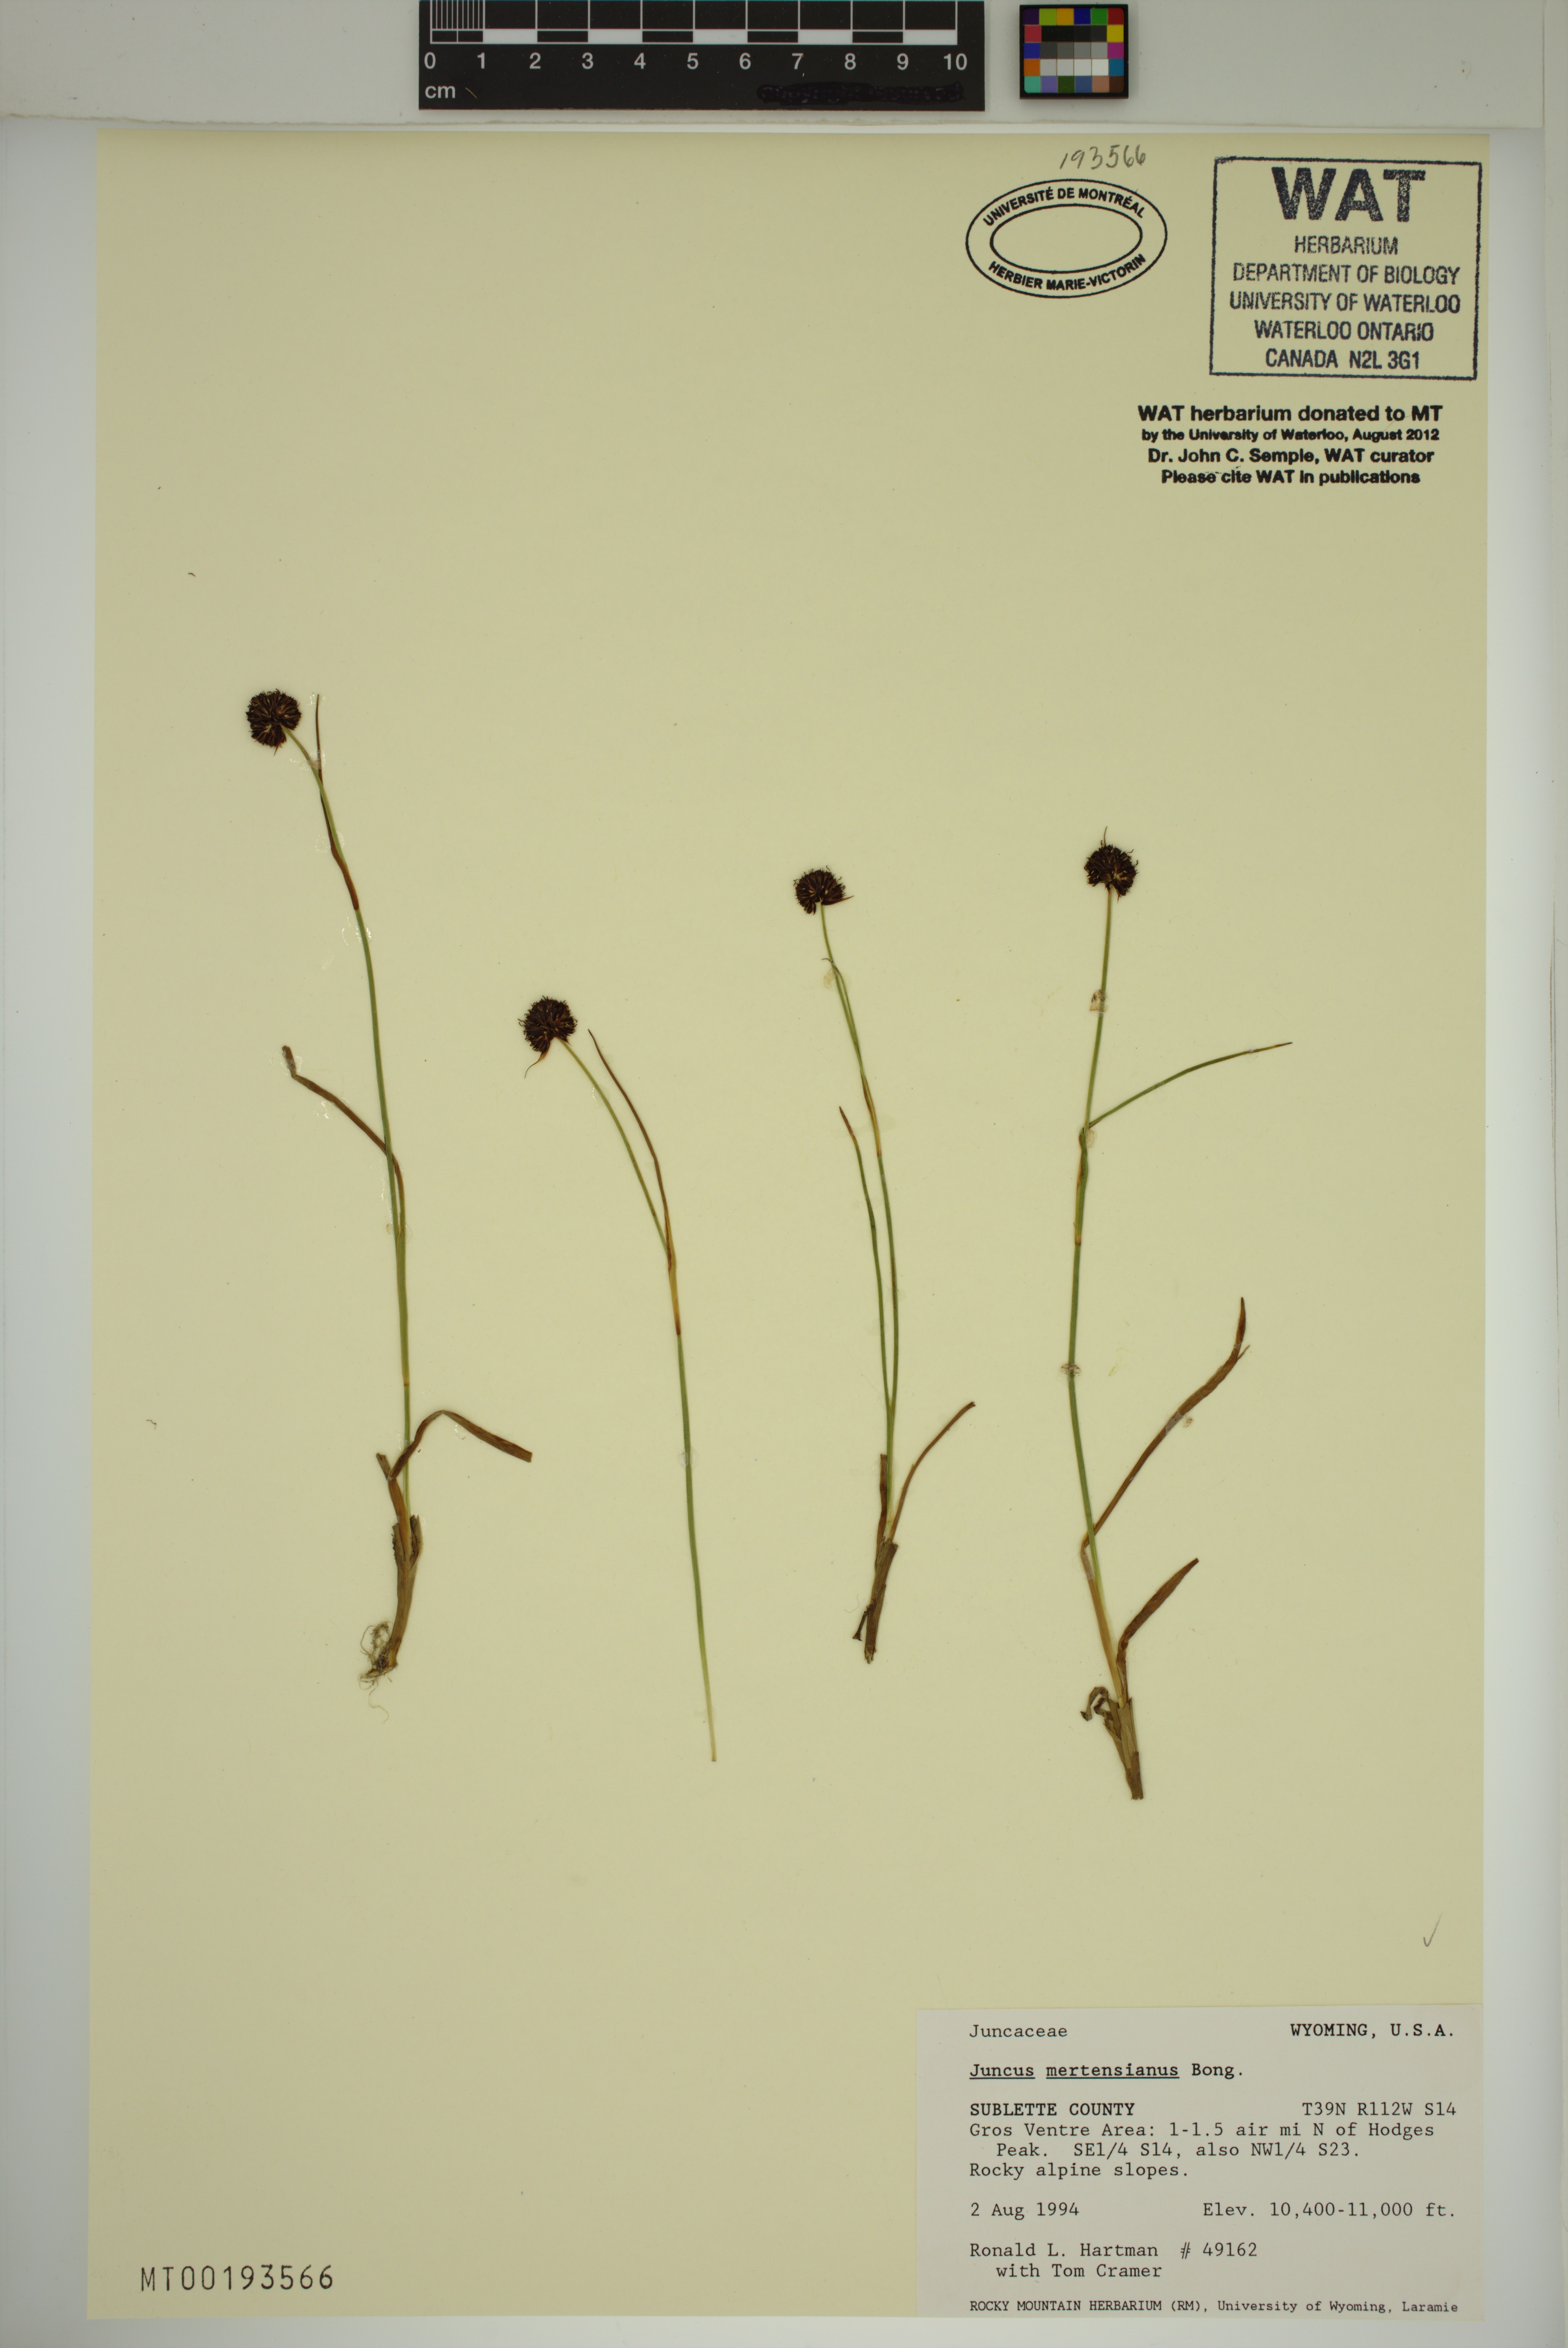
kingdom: Plantae
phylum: Tracheophyta
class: Liliopsida
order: Poales
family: Juncaceae
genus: Juncus
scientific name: Juncus mertensianus
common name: Merten's rush
